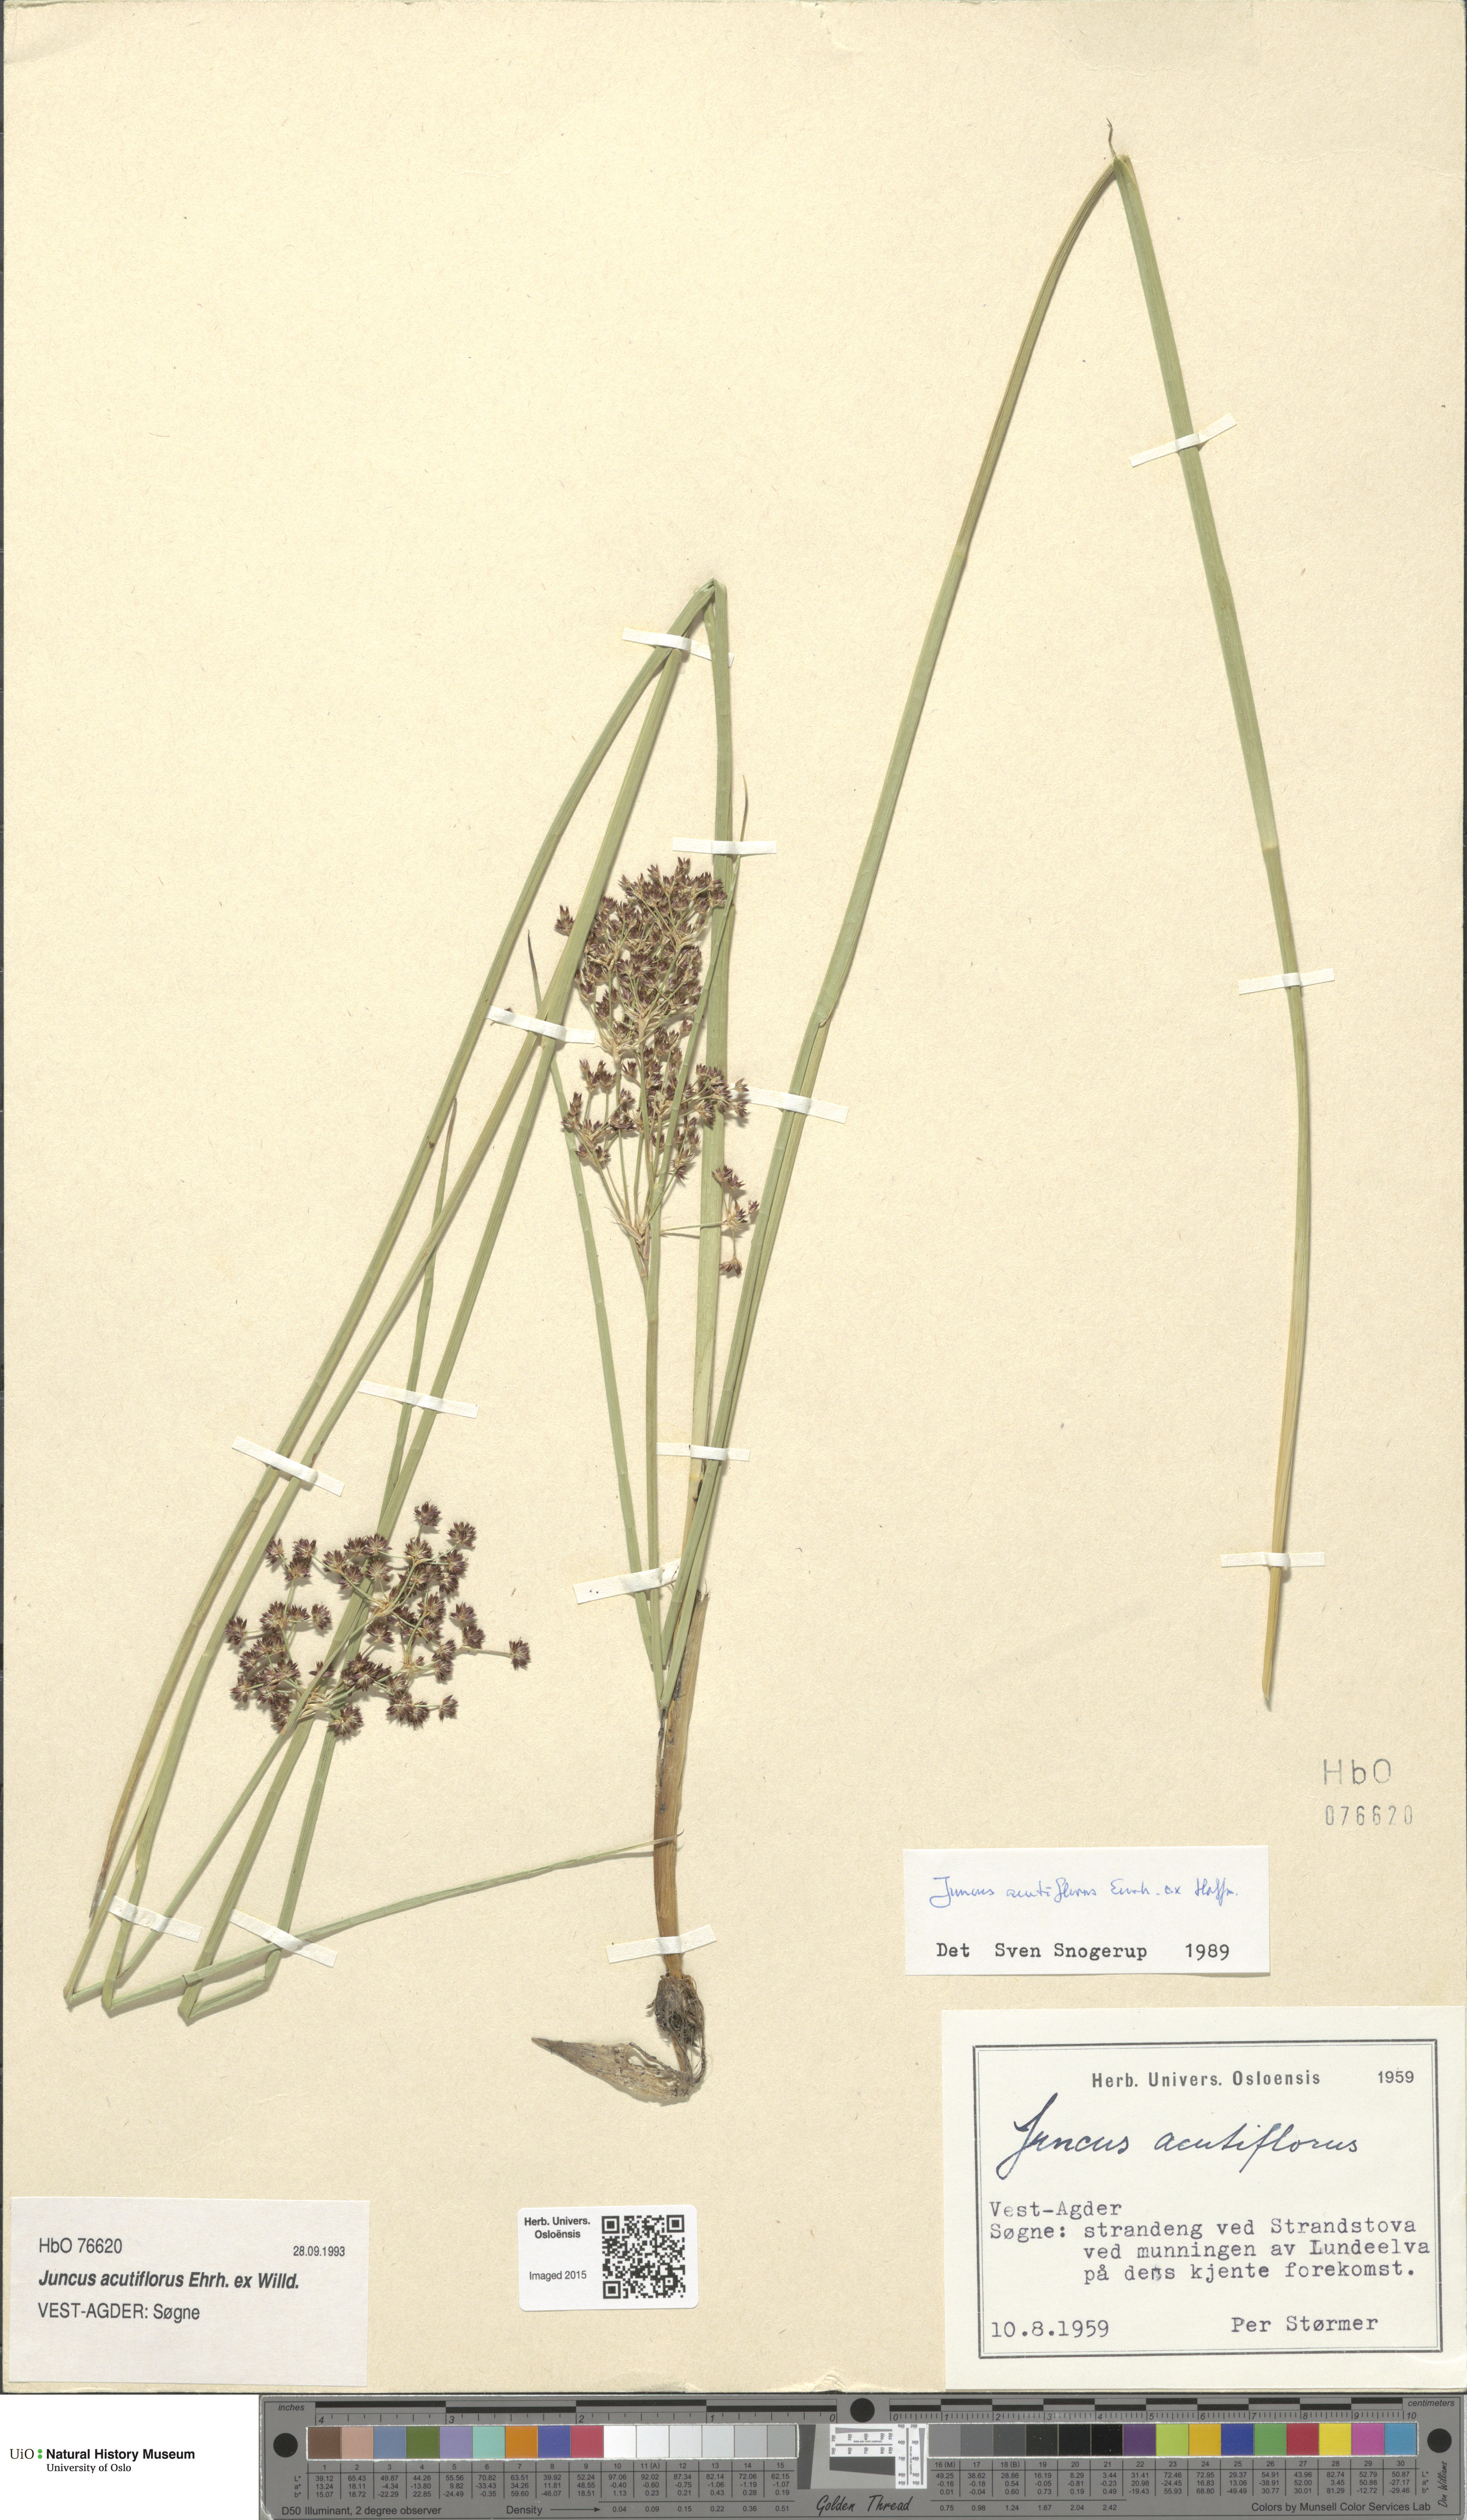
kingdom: Plantae
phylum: Tracheophyta
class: Liliopsida
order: Poales
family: Juncaceae
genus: Juncus
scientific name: Juncus acutiflorus
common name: Sharp-flowered rush
